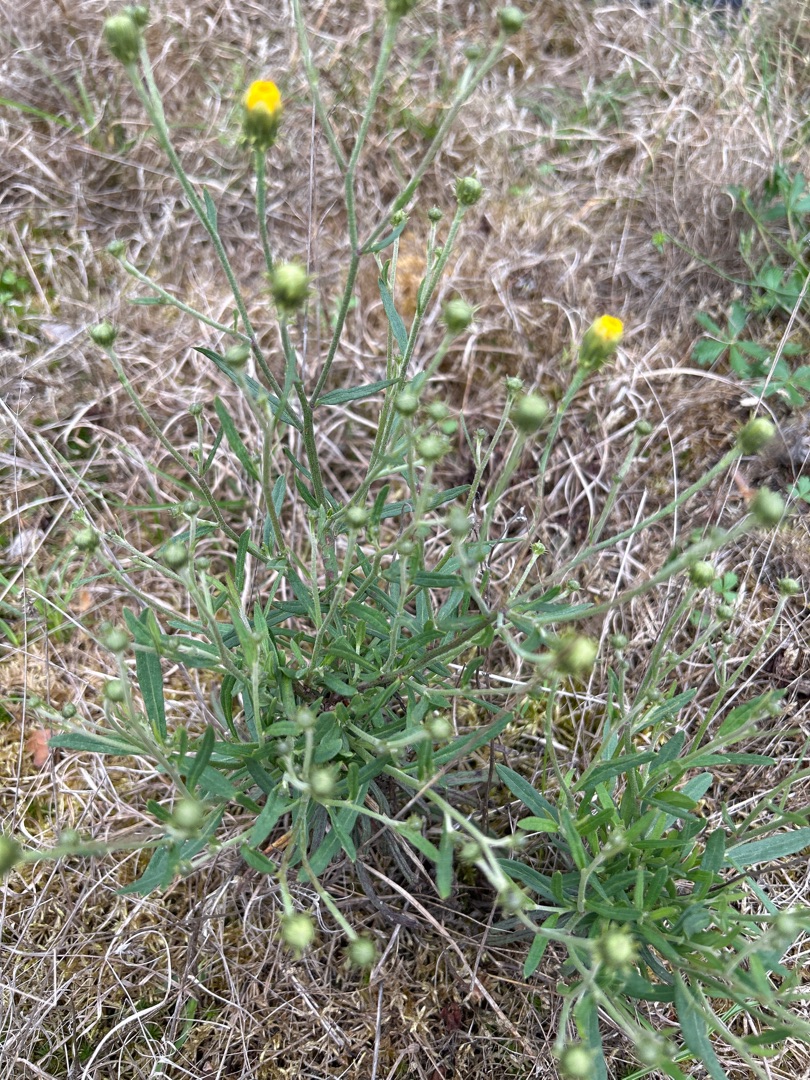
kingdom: Plantae
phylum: Tracheophyta
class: Magnoliopsida
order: Asterales
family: Asteraceae
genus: Hieracium
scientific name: Hieracium umbellatum
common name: Smalbladet høgeurt
